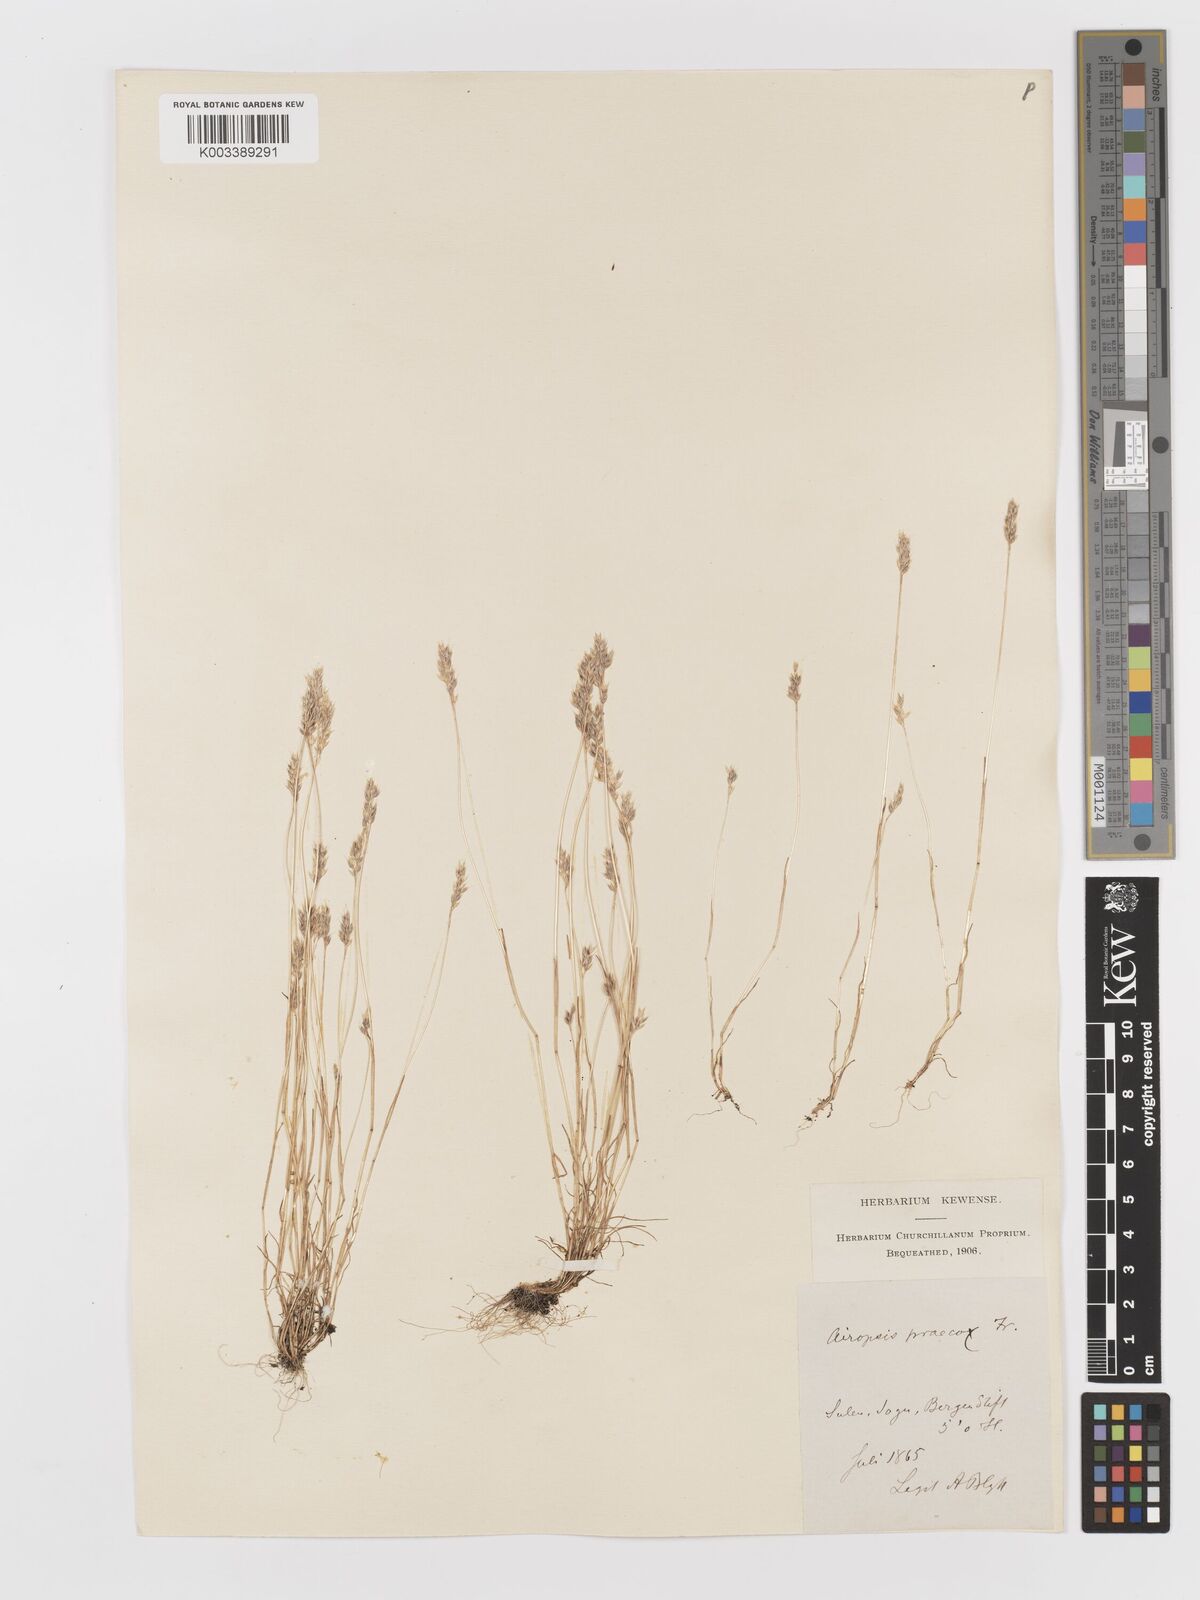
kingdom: Plantae
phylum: Tracheophyta
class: Liliopsida
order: Poales
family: Poaceae
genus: Aira
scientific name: Aira praecox
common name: Early hair-grass
